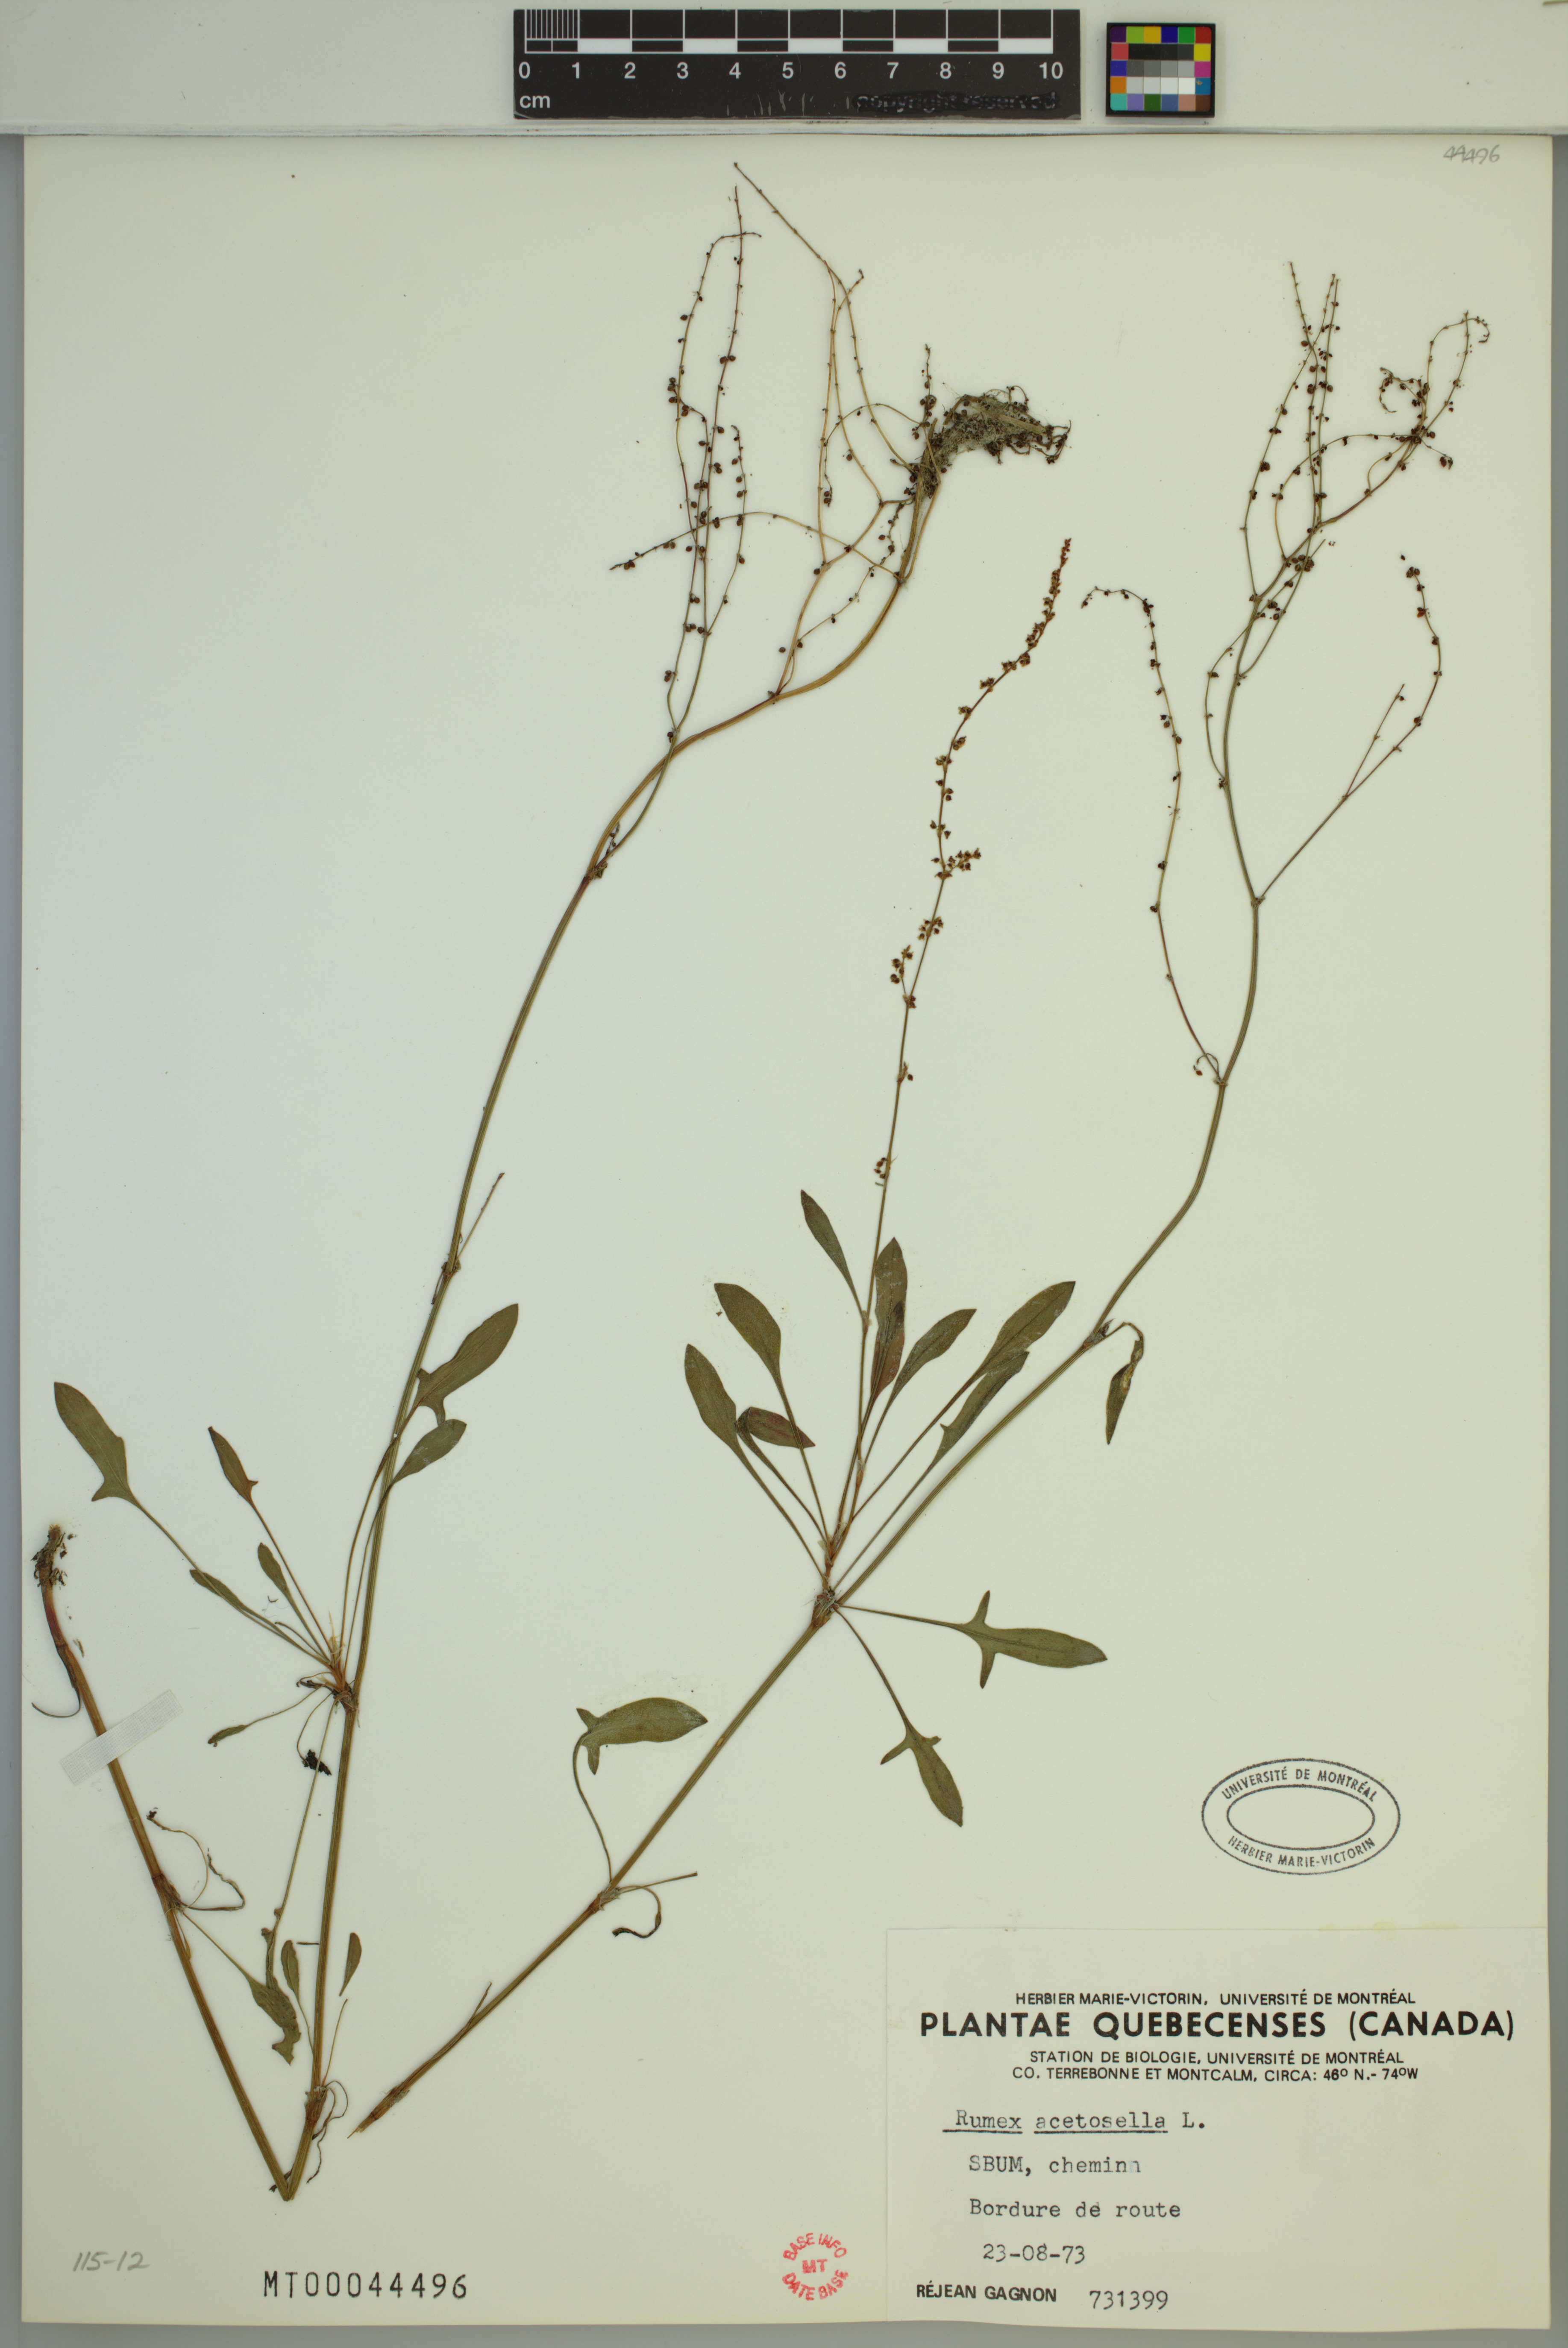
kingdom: Plantae
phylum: Tracheophyta
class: Magnoliopsida
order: Caryophyllales
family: Polygonaceae
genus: Rumex
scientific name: Rumex acetosella
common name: Common sheep sorrel
